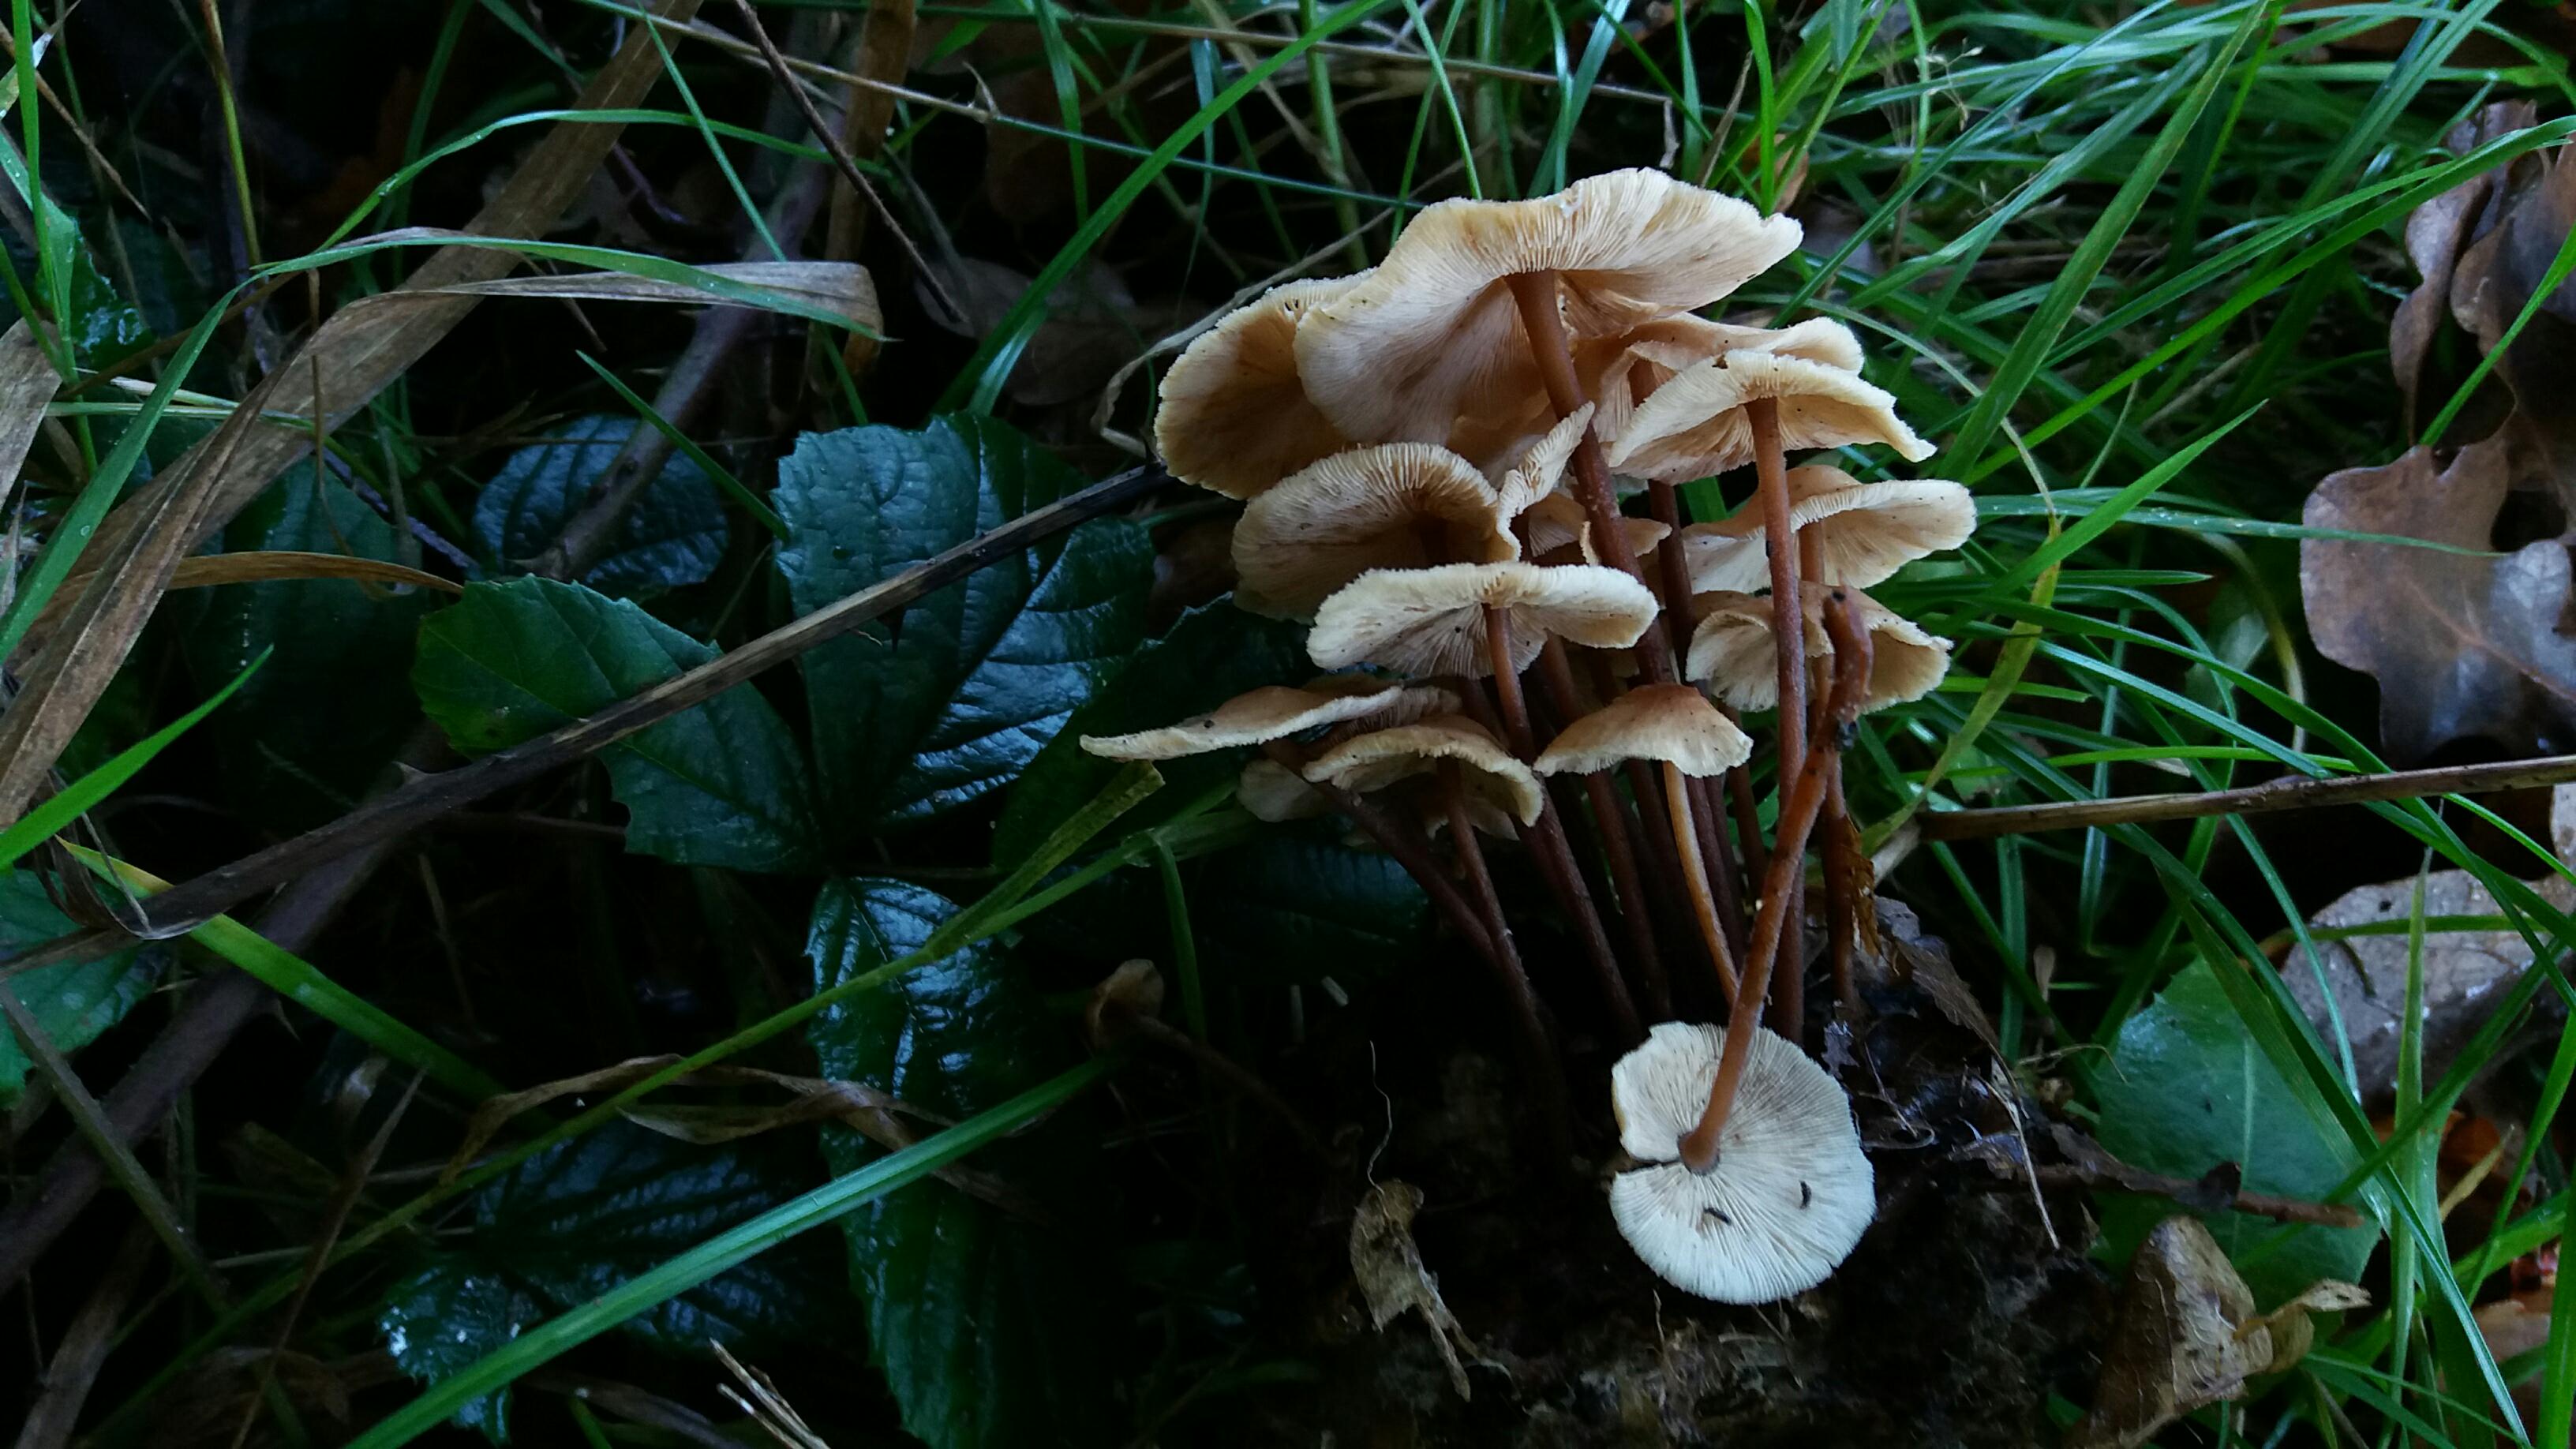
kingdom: Fungi
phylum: Basidiomycota
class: Agaricomycetes
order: Agaricales
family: Omphalotaceae
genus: Collybiopsis
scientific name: Collybiopsis confluens
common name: knippe-fladhat
